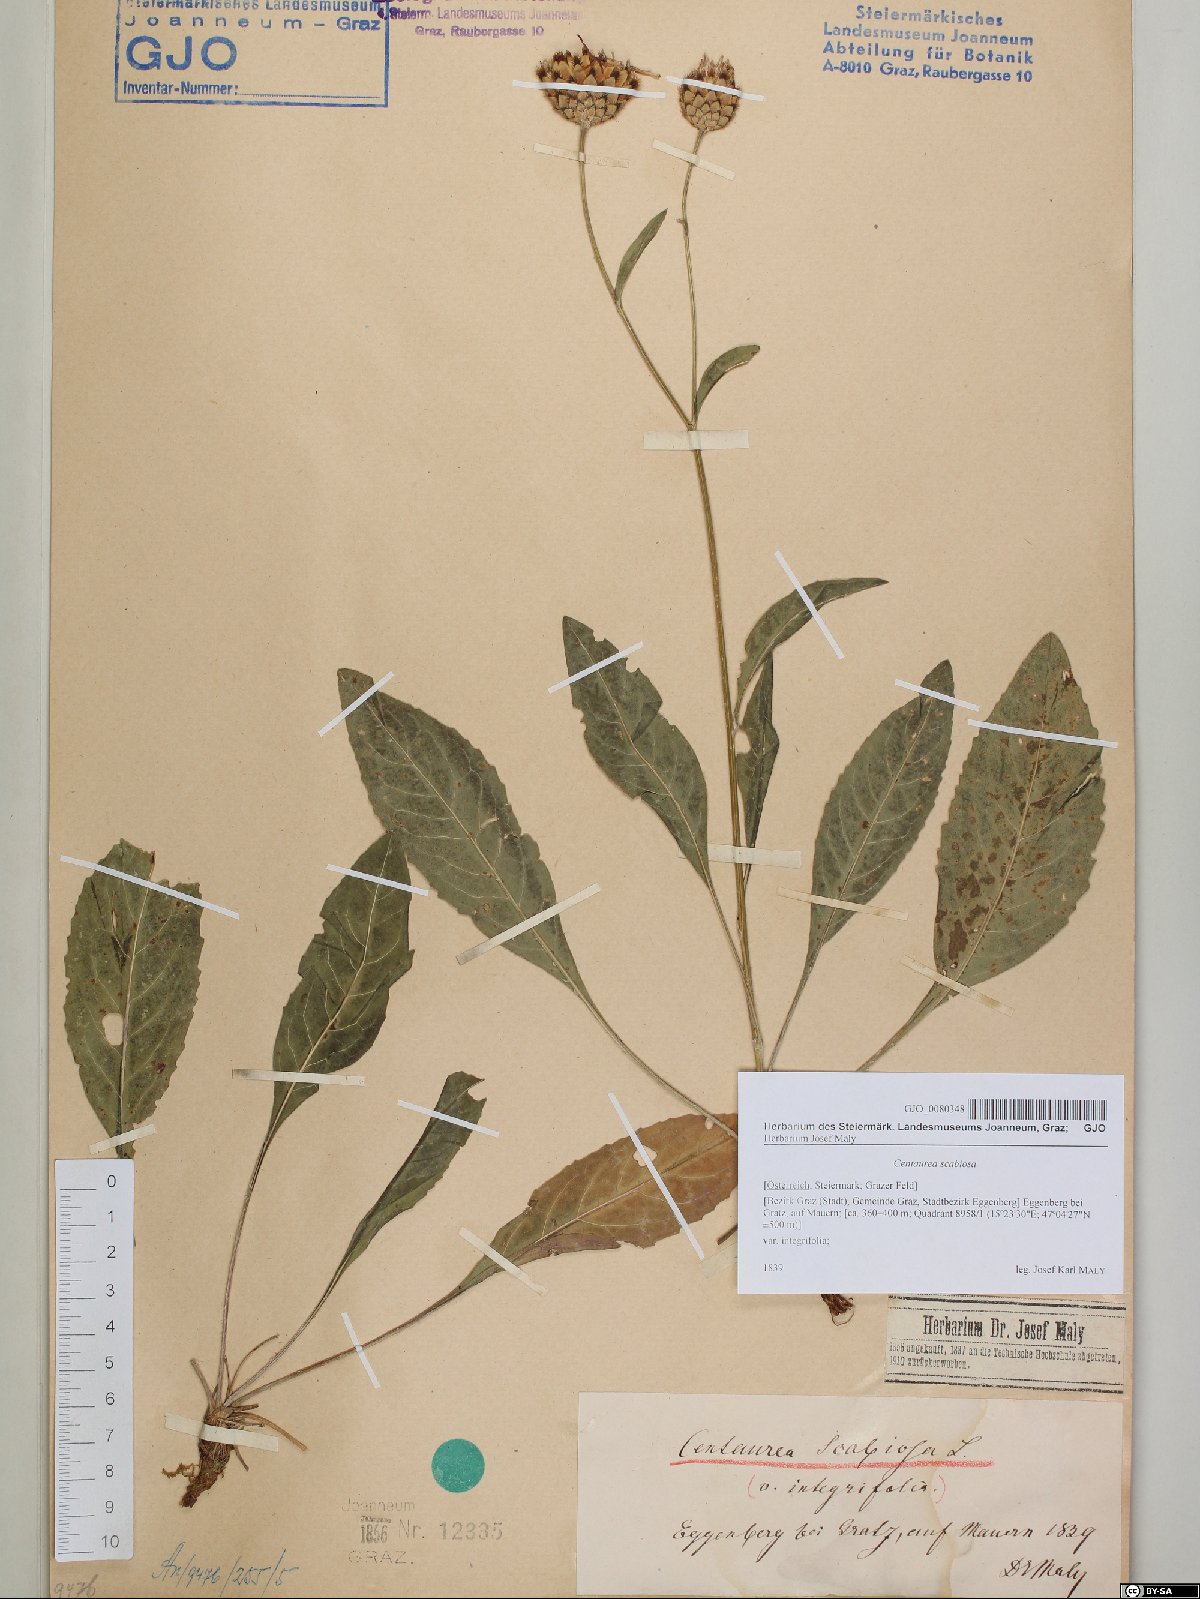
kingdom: Plantae
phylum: Tracheophyta
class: Magnoliopsida
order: Asterales
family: Asteraceae
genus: Centaurea
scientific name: Centaurea scabiosa
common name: Greater knapweed
